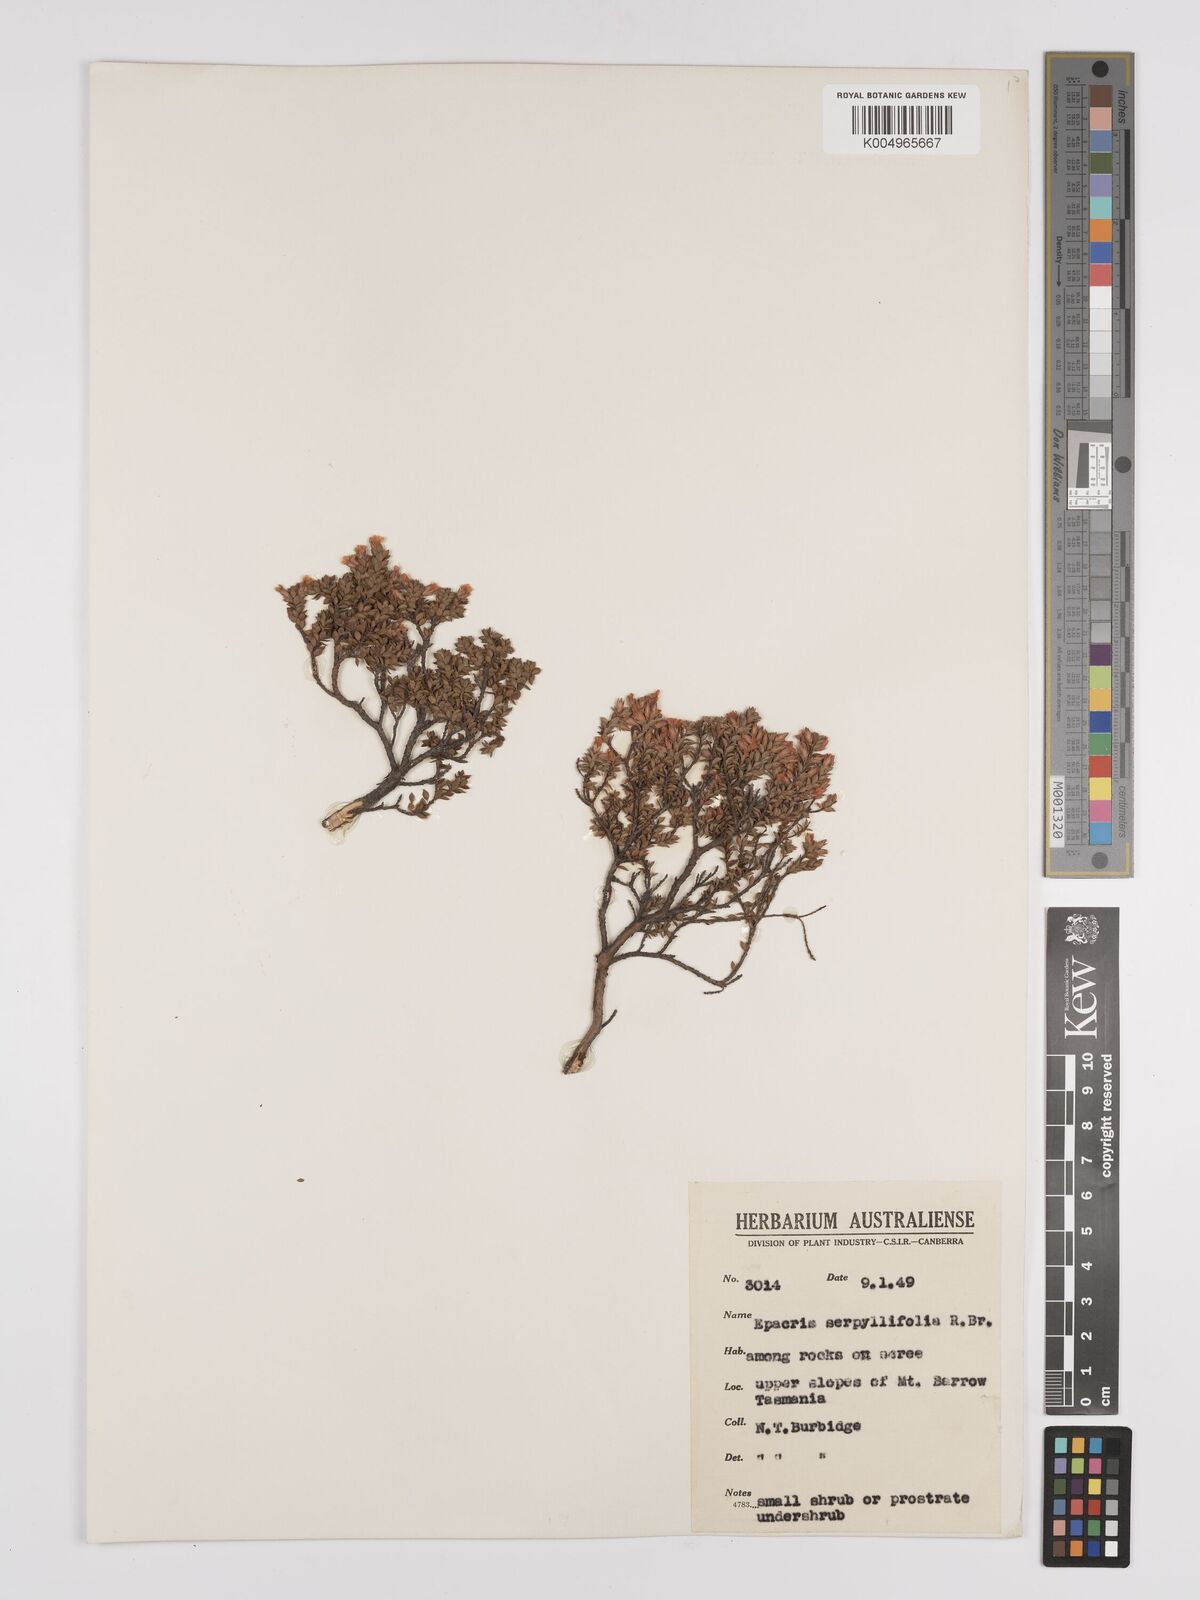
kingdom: Plantae
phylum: Tracheophyta
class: Magnoliopsida
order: Ericales
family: Ericaceae
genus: Epacris
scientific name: Epacris serpyllifolia
